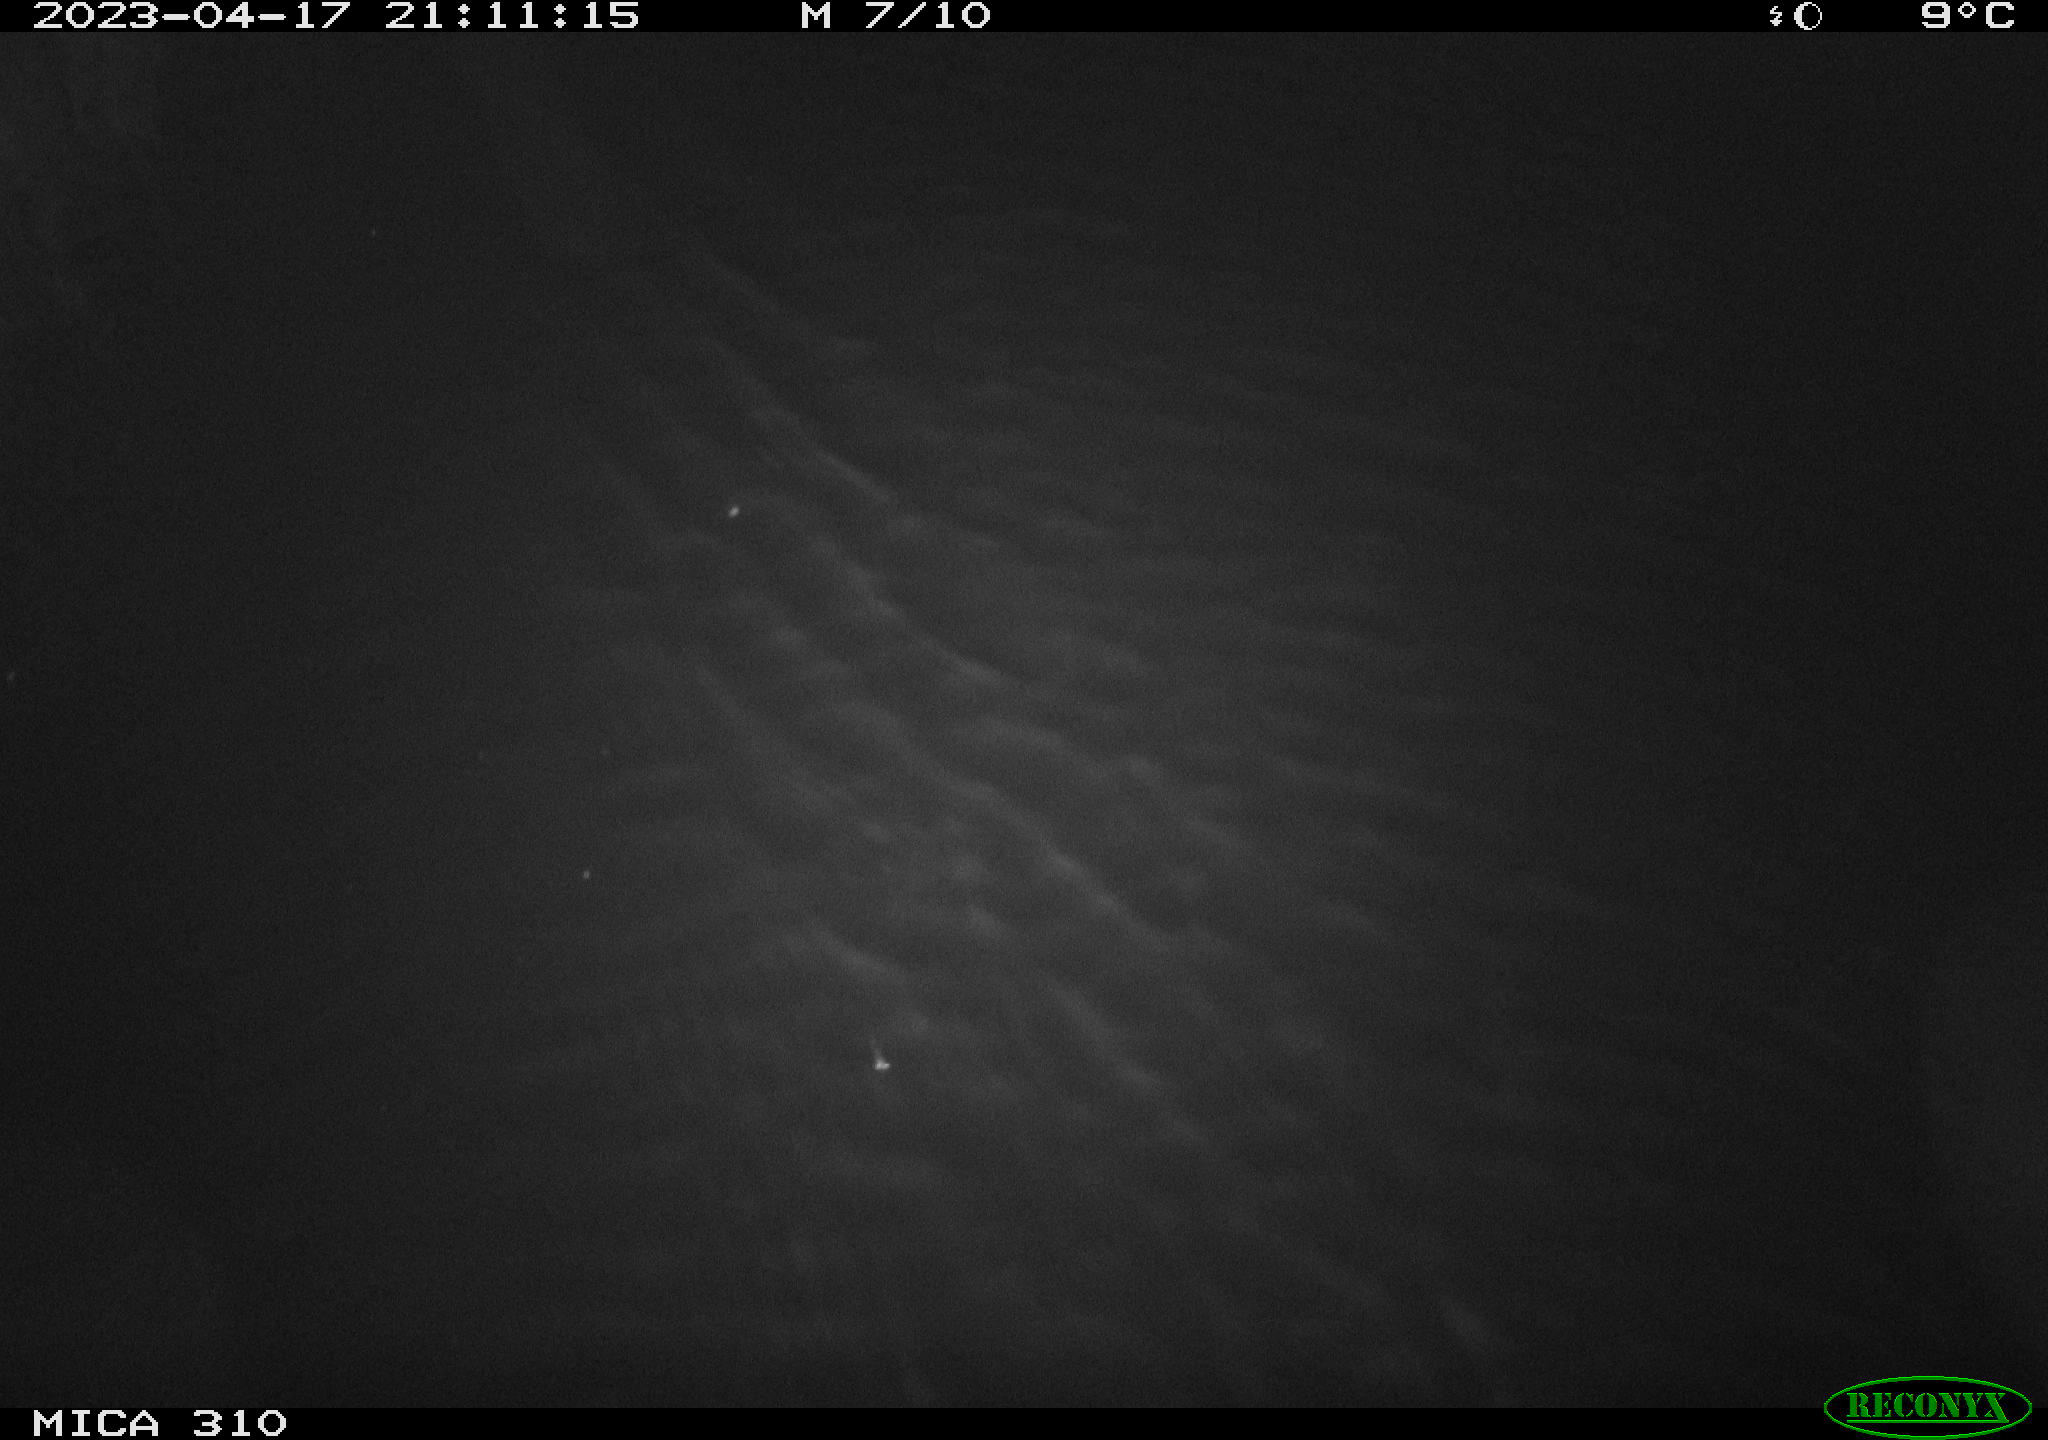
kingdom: Animalia
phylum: Chordata
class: Aves
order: Anseriformes
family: Anatidae
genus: Anas
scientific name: Anas
